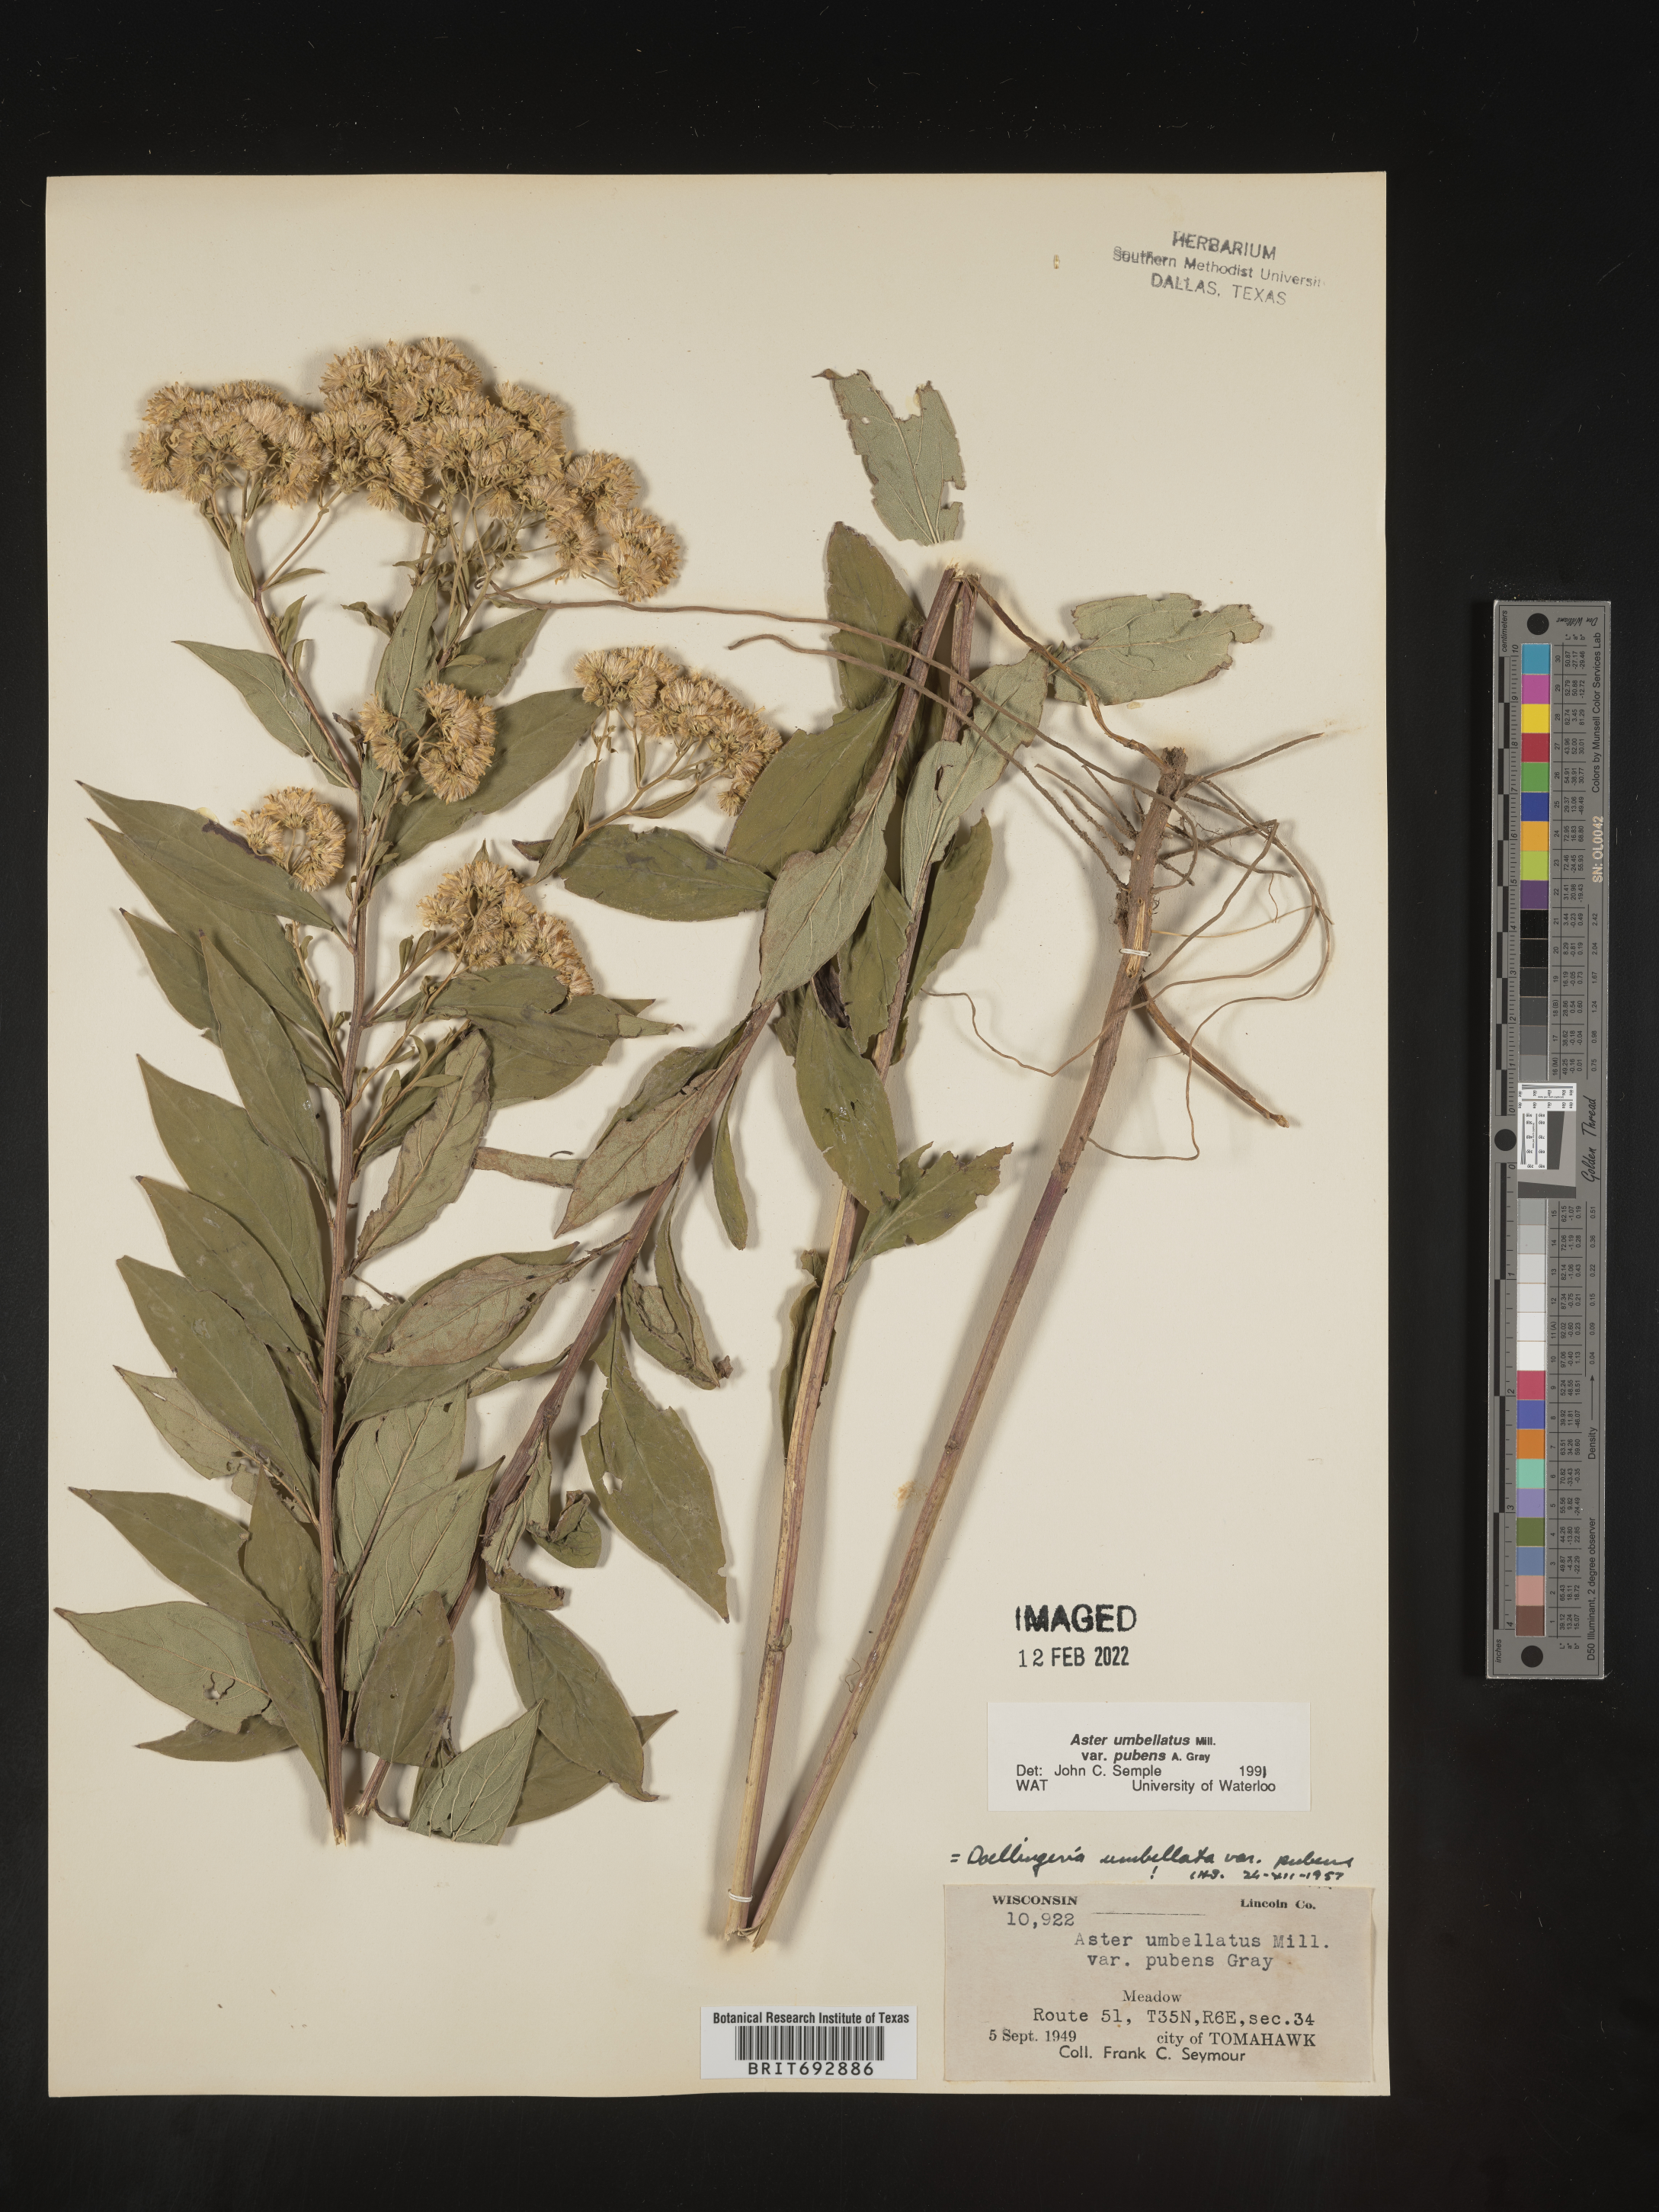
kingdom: Plantae
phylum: Tracheophyta
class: Magnoliopsida
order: Asterales
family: Asteraceae
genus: Doellingeria
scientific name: Doellingeria umbellata
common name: Flat-top white aster
